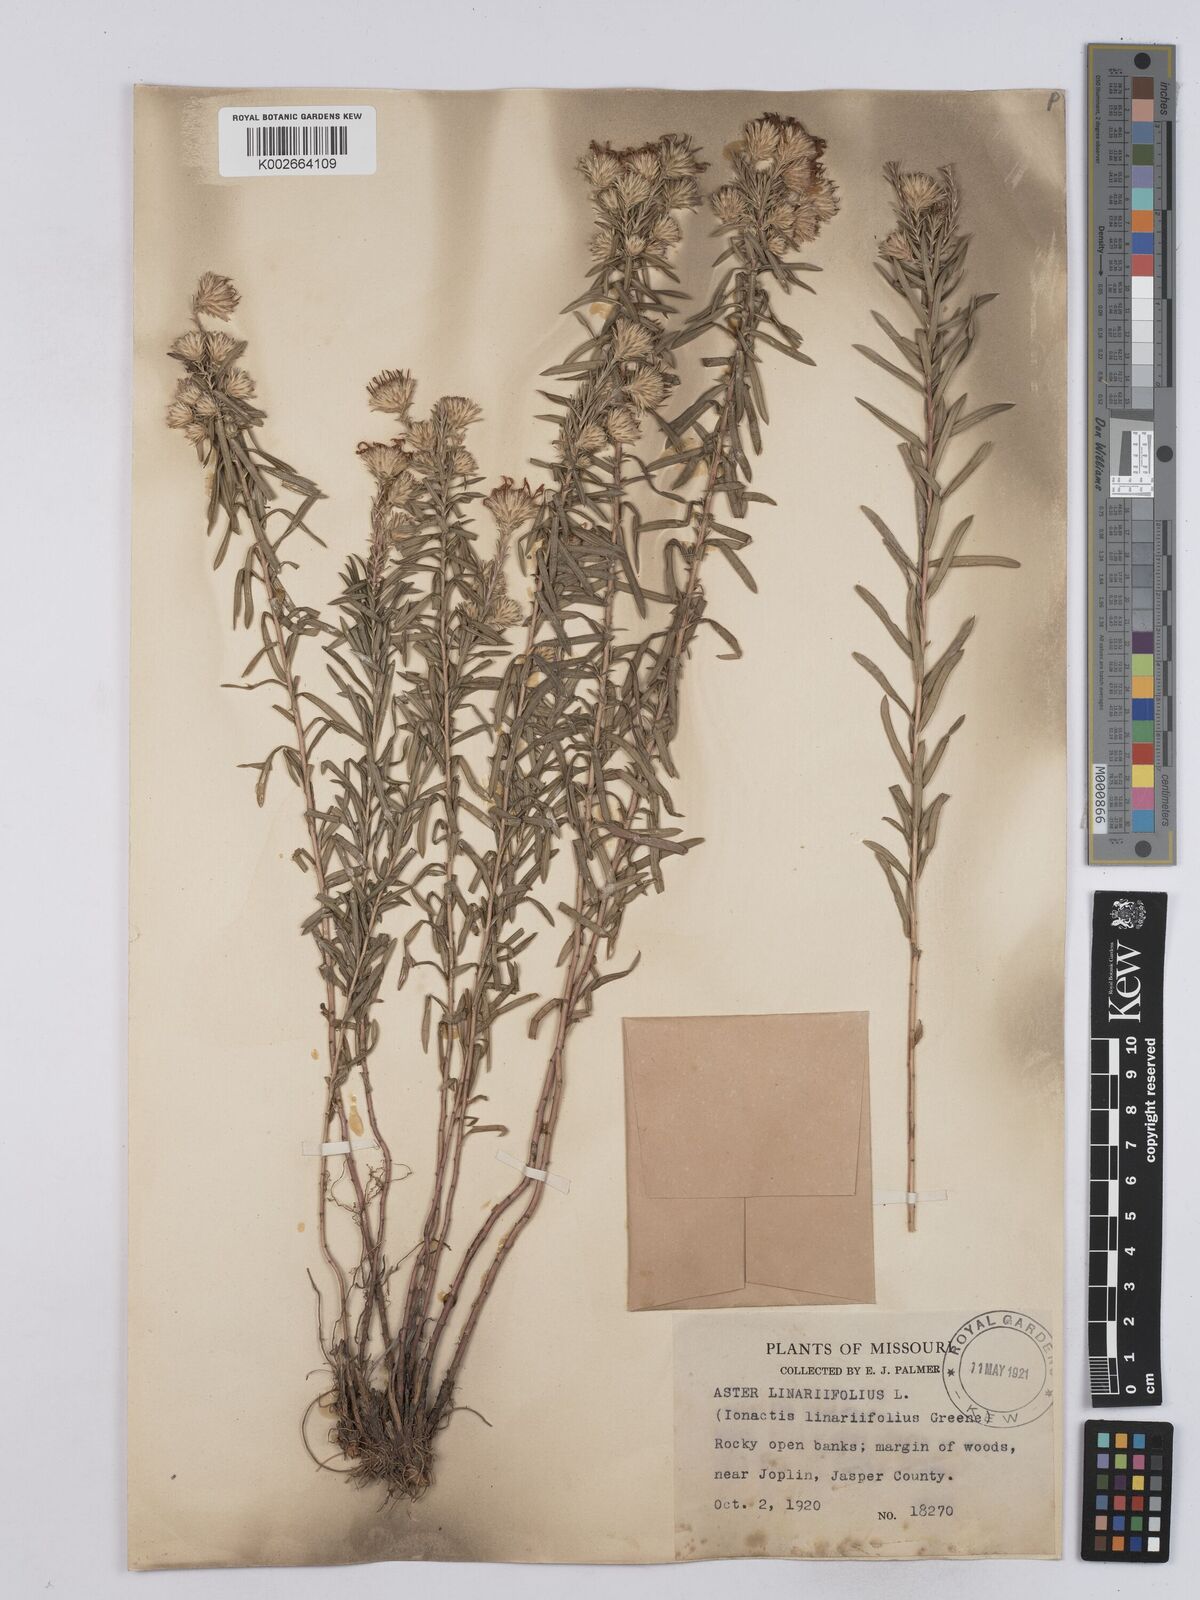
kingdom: Plantae
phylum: Tracheophyta
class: Magnoliopsida
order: Asterales
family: Asteraceae
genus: Ionactis
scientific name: Ionactis linariifolia
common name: Flax-leaf aster
